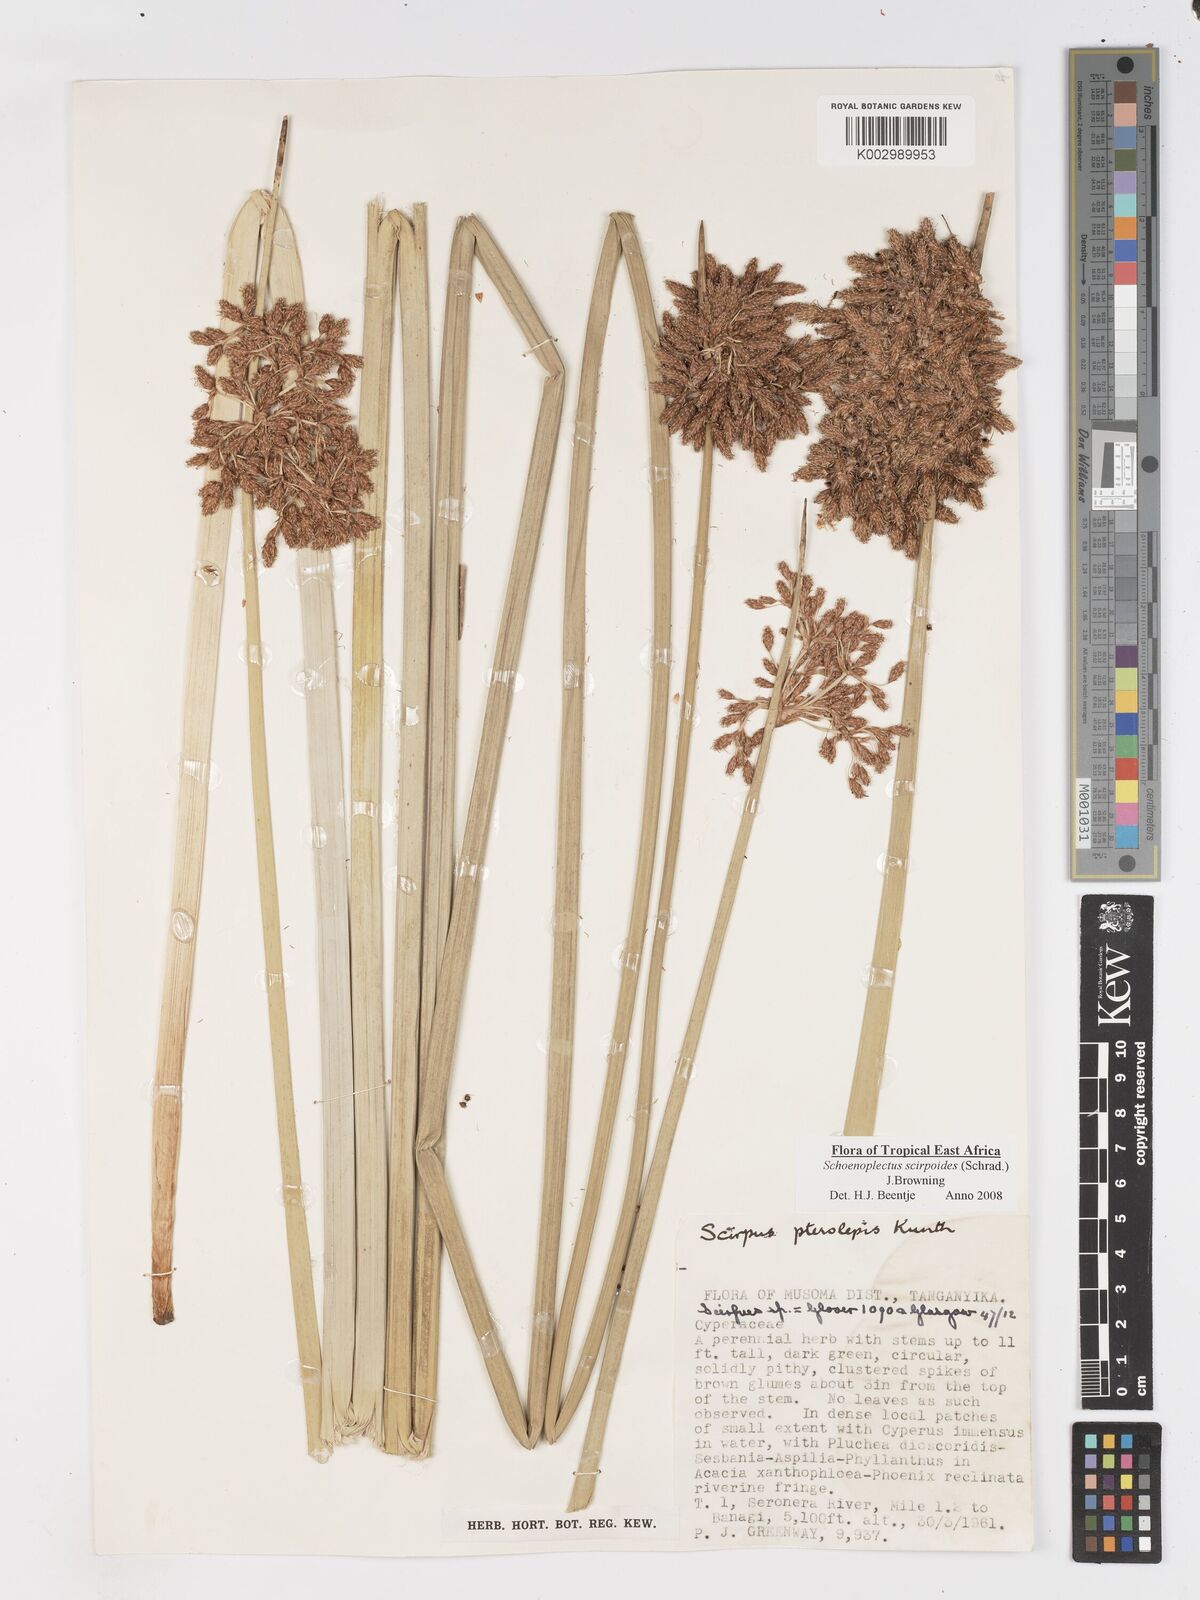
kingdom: Plantae
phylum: Tracheophyta
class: Liliopsida
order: Poales
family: Cyperaceae
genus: Schoenoplectus
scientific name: Schoenoplectus
